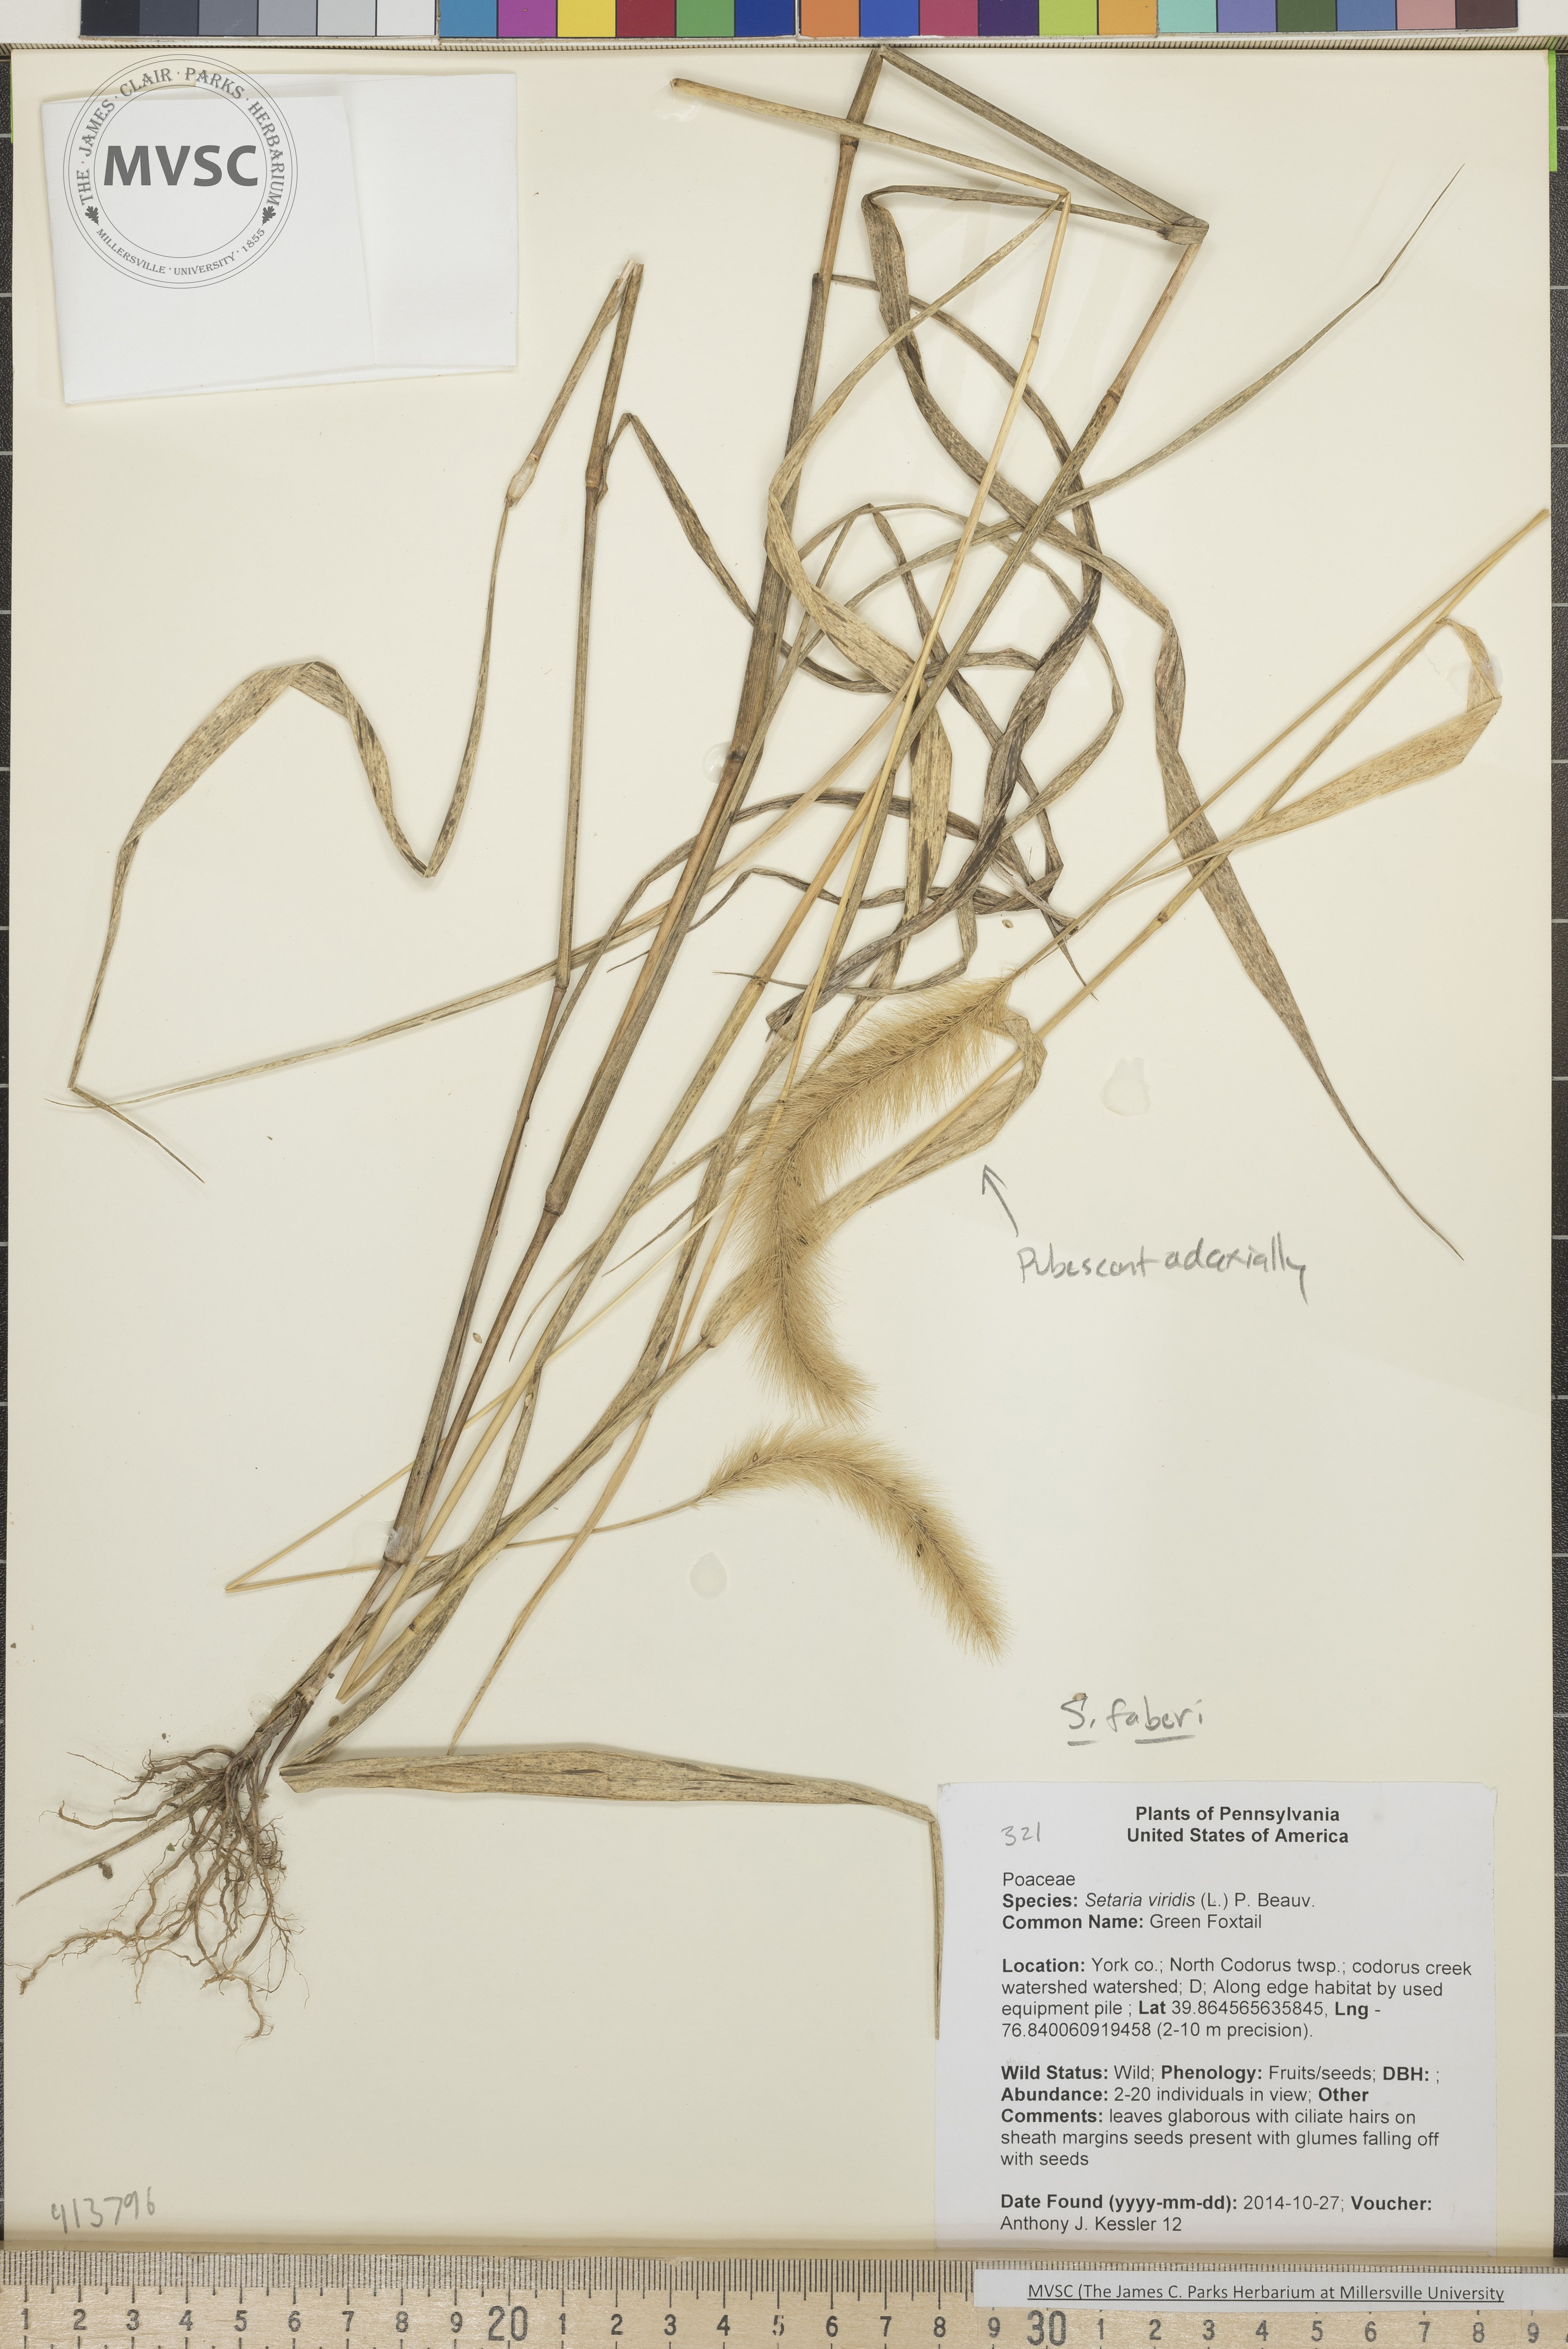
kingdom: Plantae
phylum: Tracheophyta
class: Liliopsida
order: Poales
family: Poaceae
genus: Setaria
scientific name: Setaria faberi
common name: Giant Foxtail
